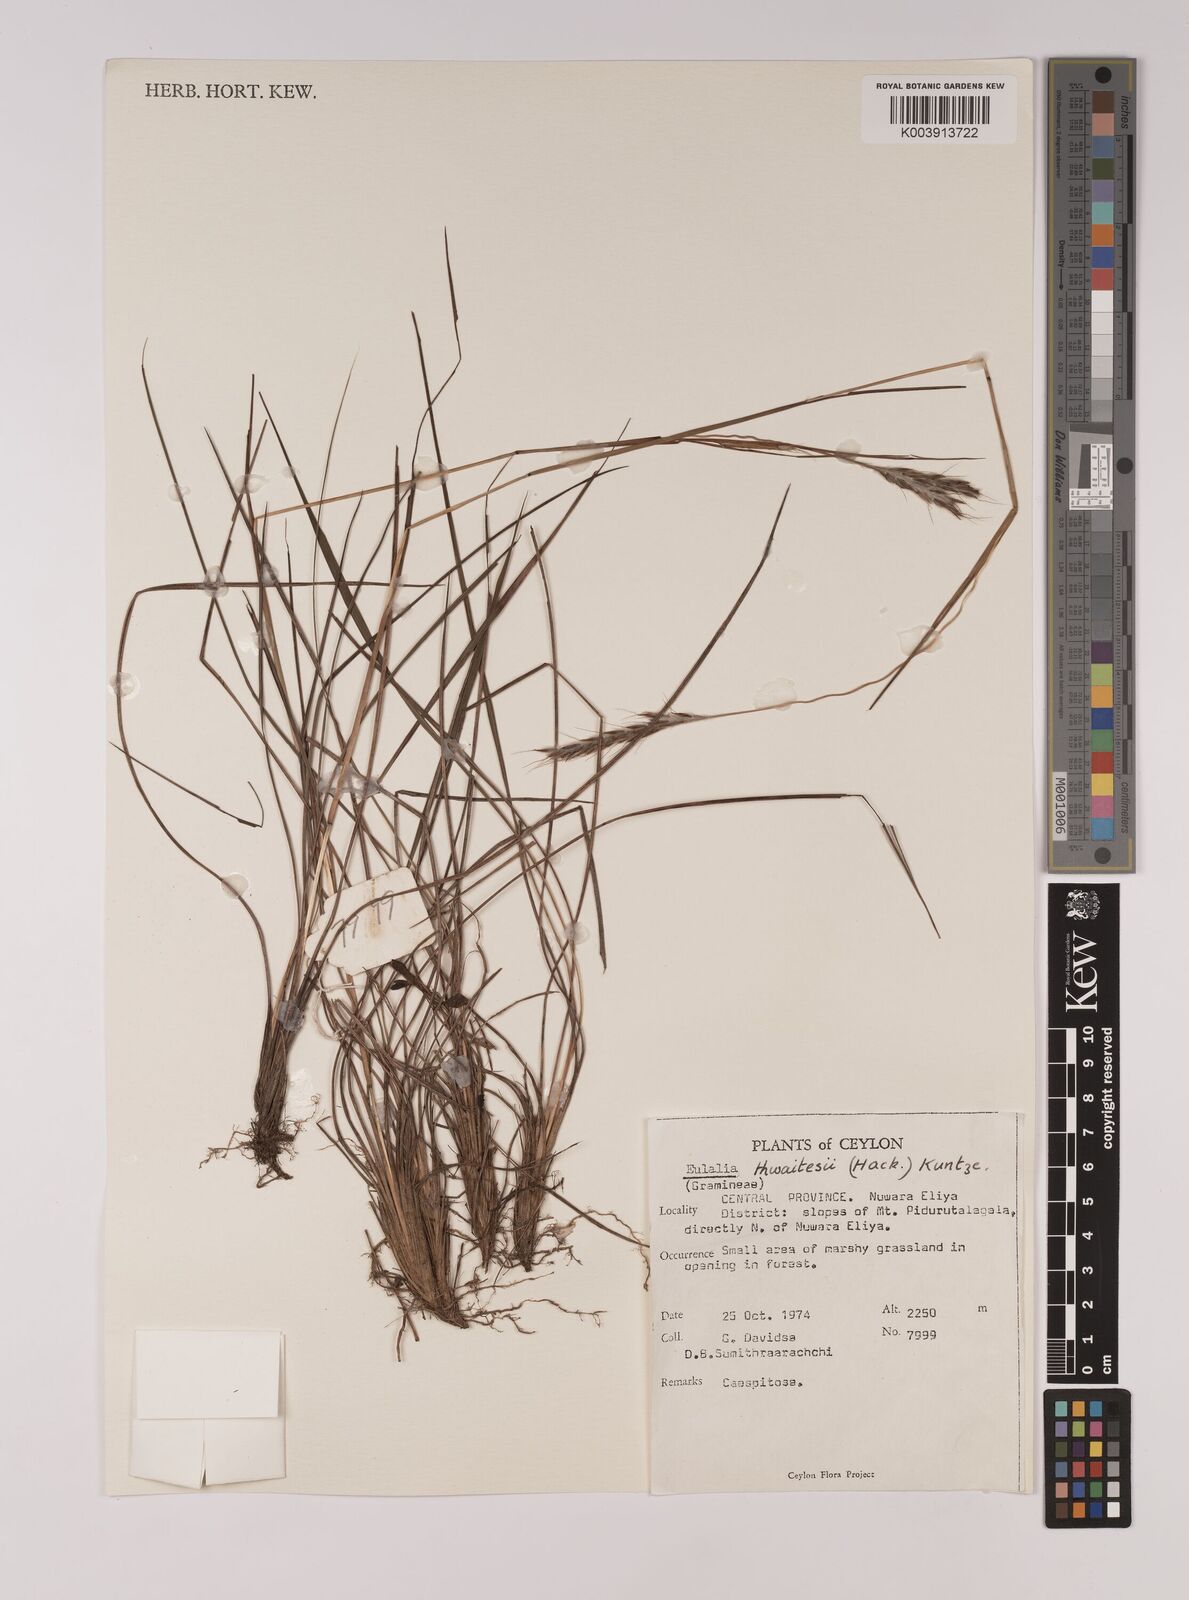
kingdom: Plantae
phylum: Tracheophyta
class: Liliopsida
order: Poales
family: Poaceae
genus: Eulalia
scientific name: Eulalia thwaitesii
